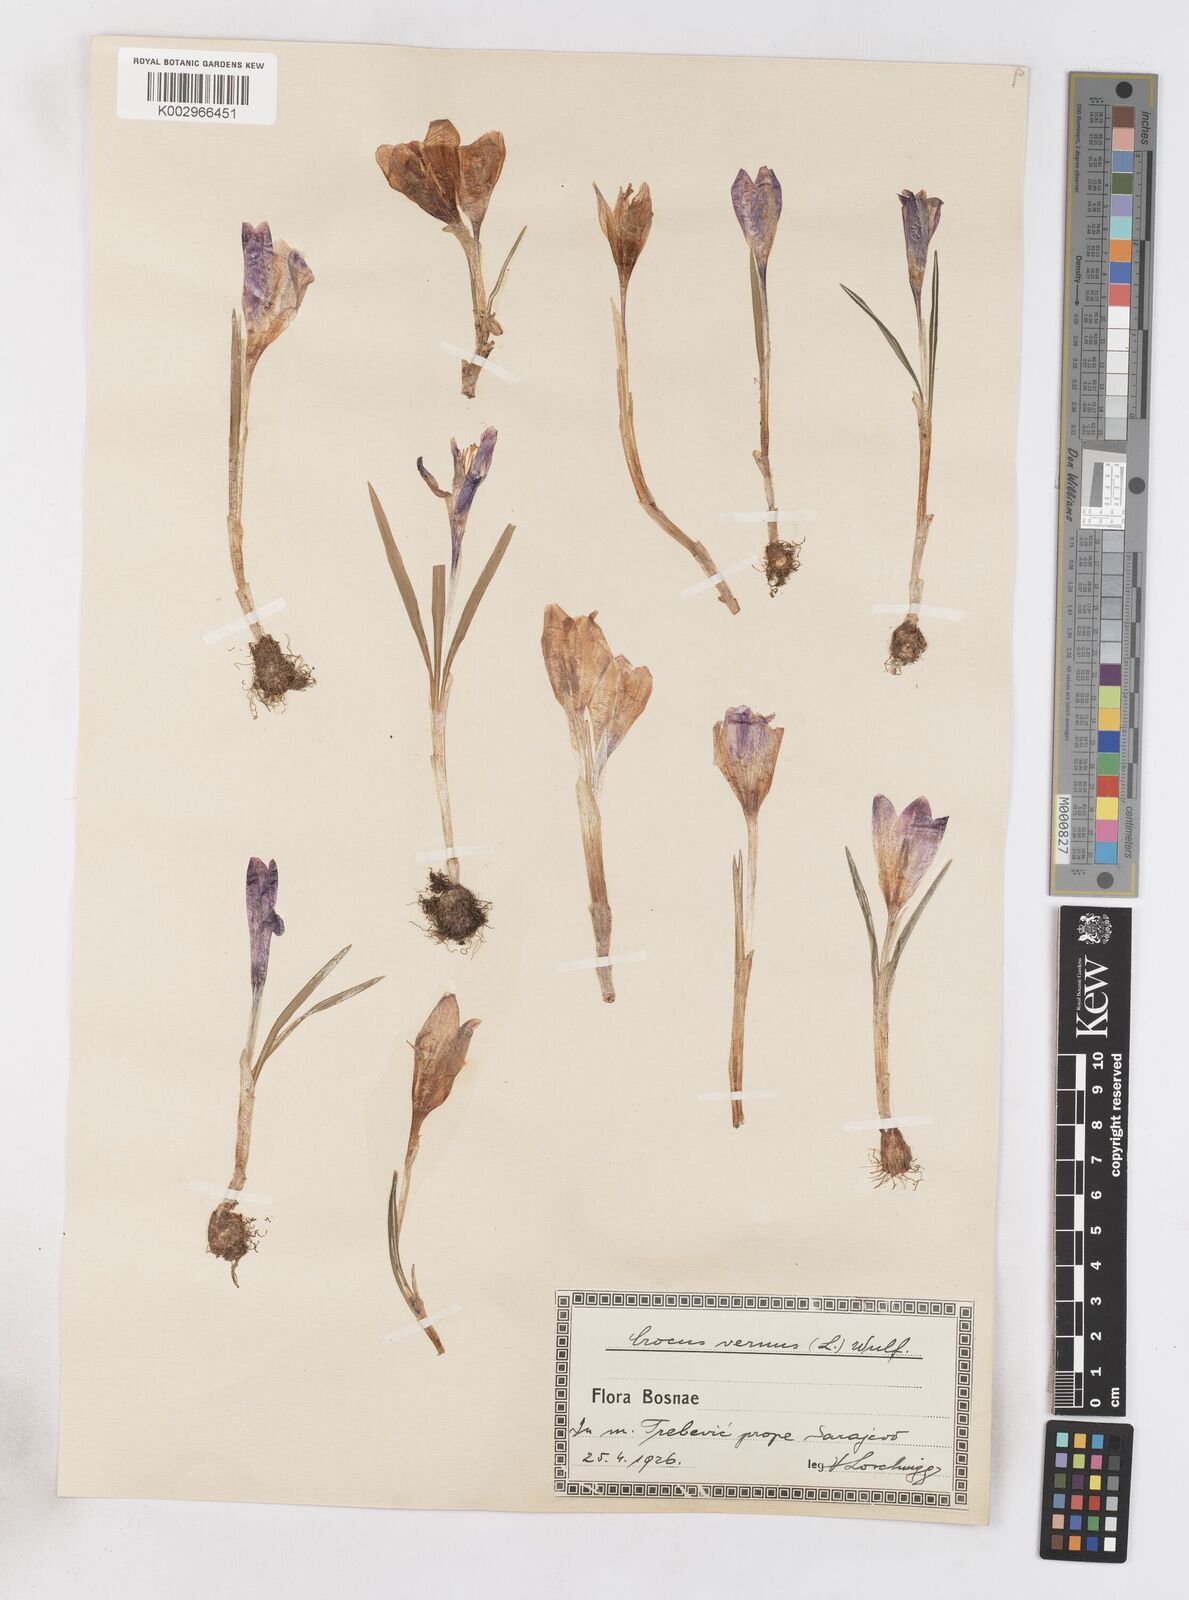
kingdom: Plantae
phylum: Tracheophyta
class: Liliopsida
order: Asparagales
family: Iridaceae
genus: Crocus
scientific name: Crocus vernus
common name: Spring crocus
